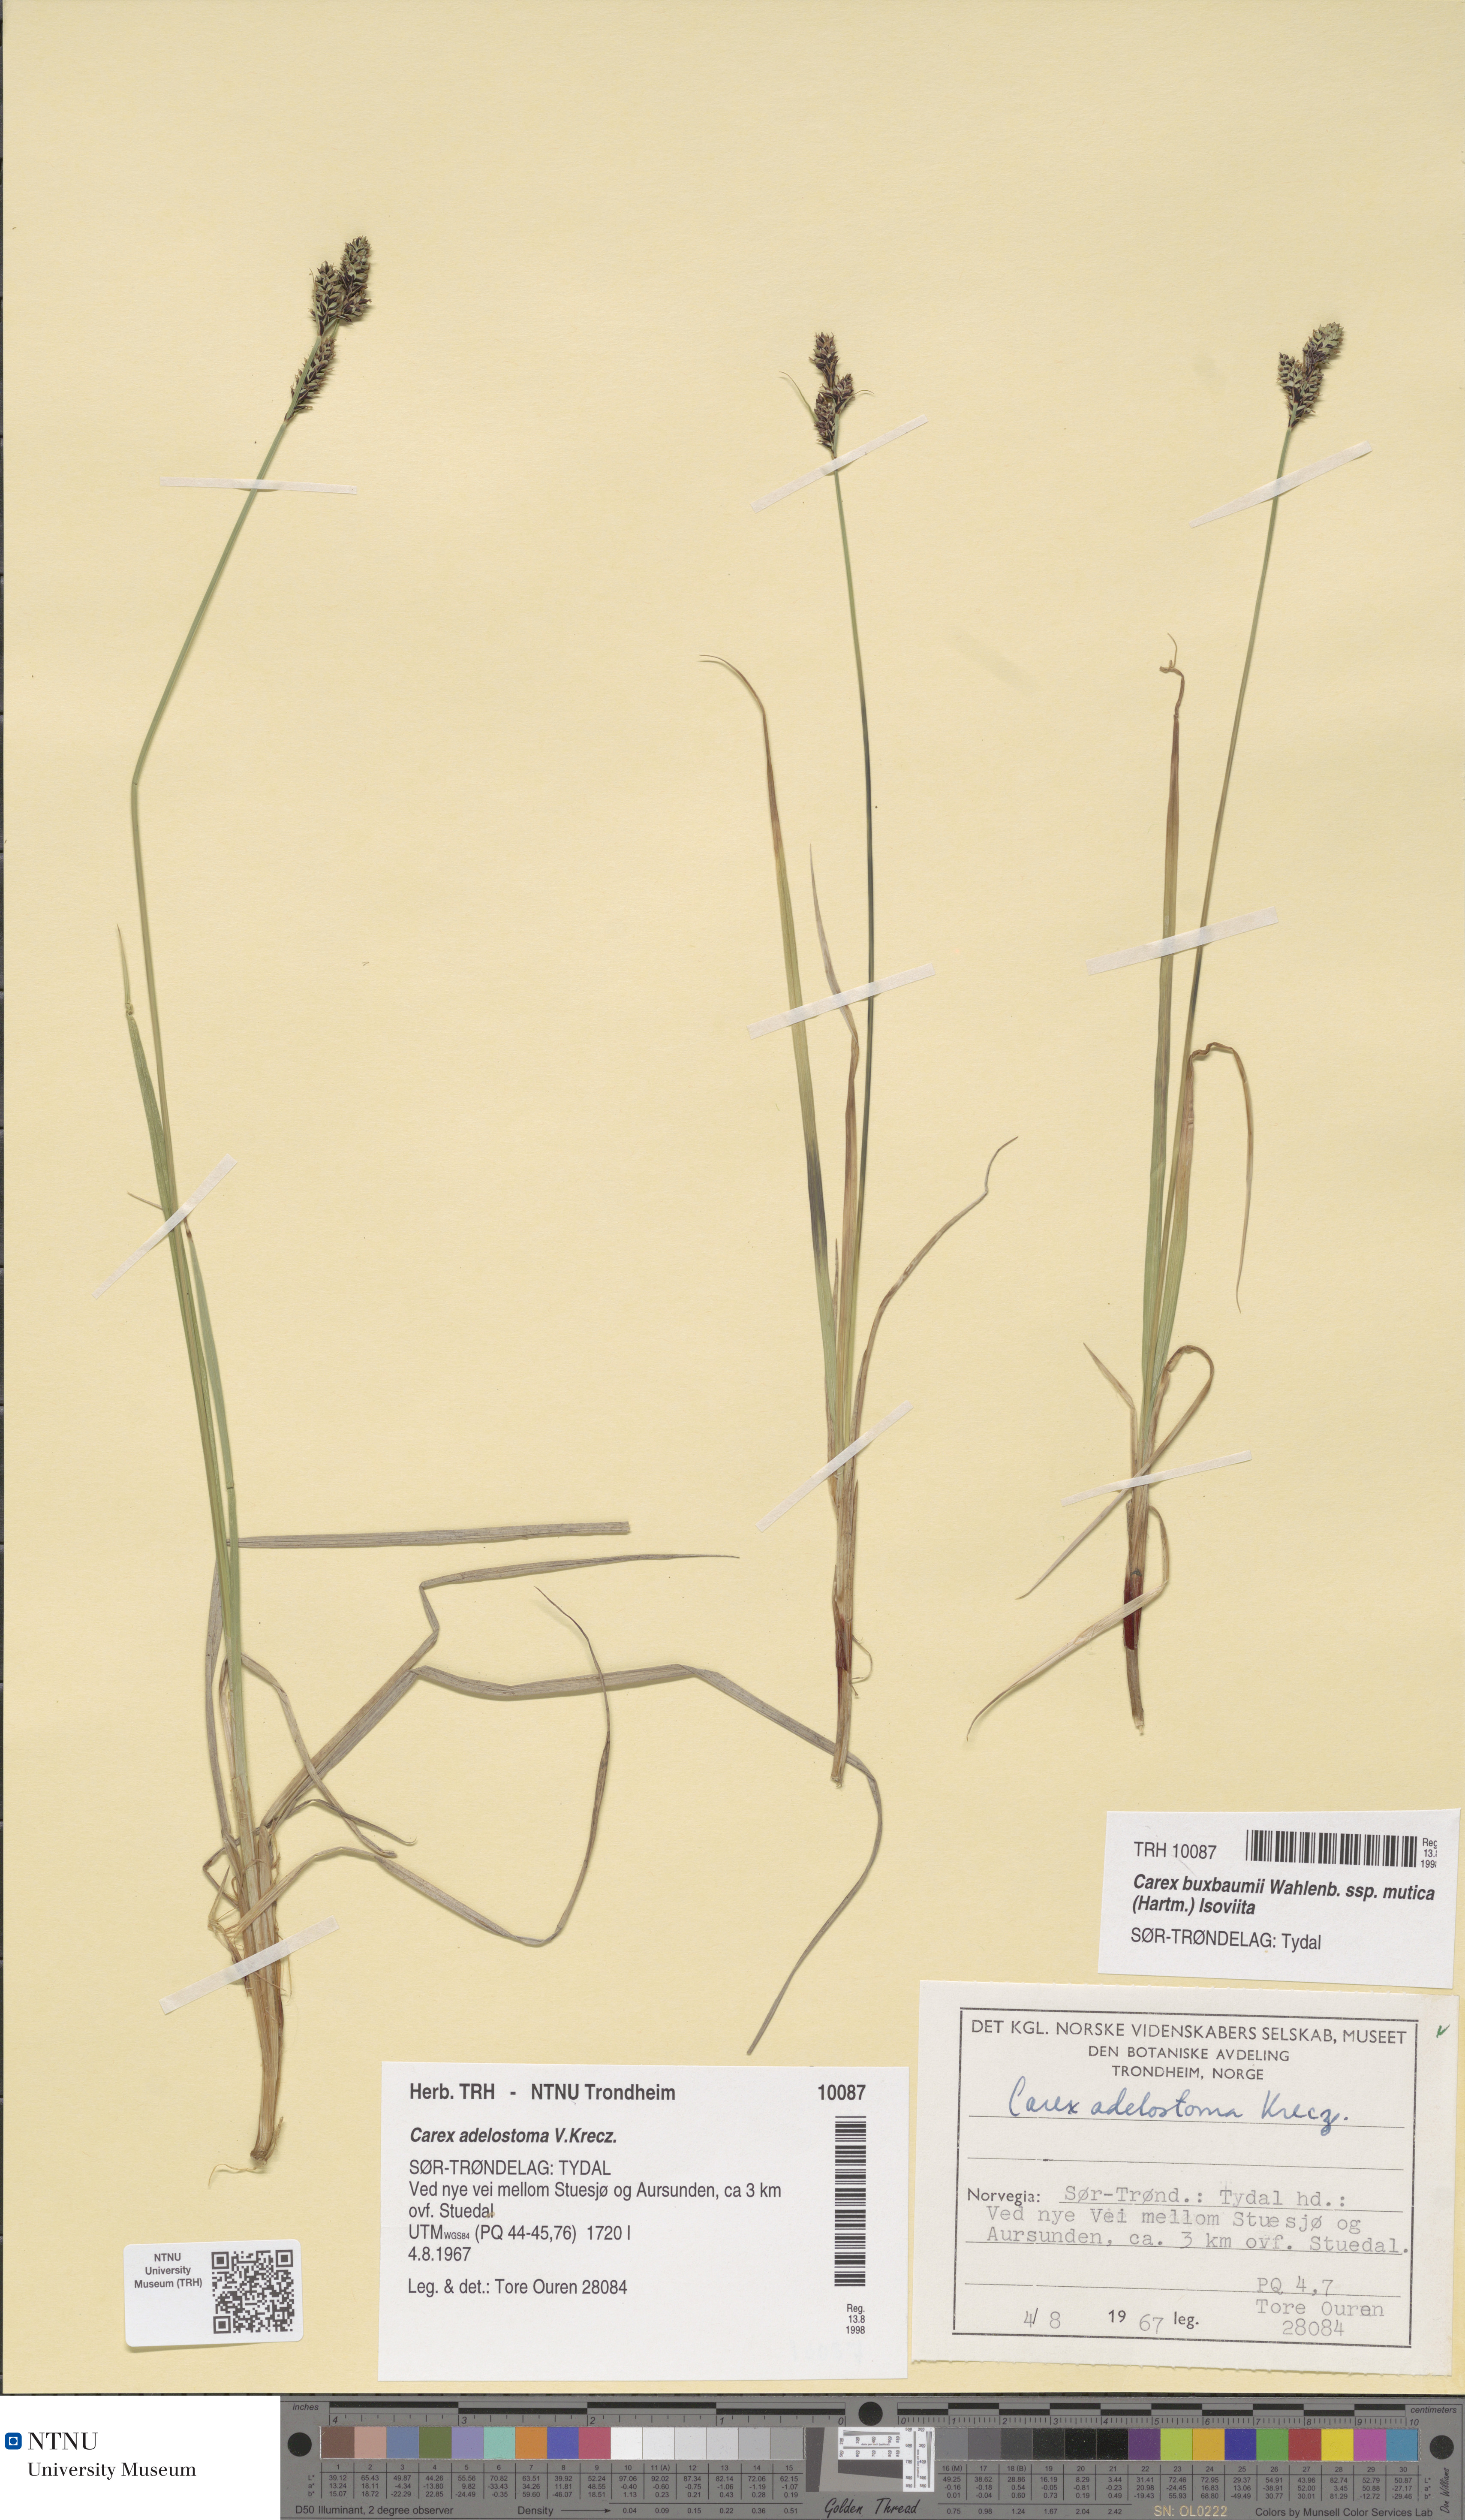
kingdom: Plantae
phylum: Tracheophyta
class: Liliopsida
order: Poales
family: Cyperaceae
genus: Carex
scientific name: Carex adelostoma
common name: Circumpolar sedge
